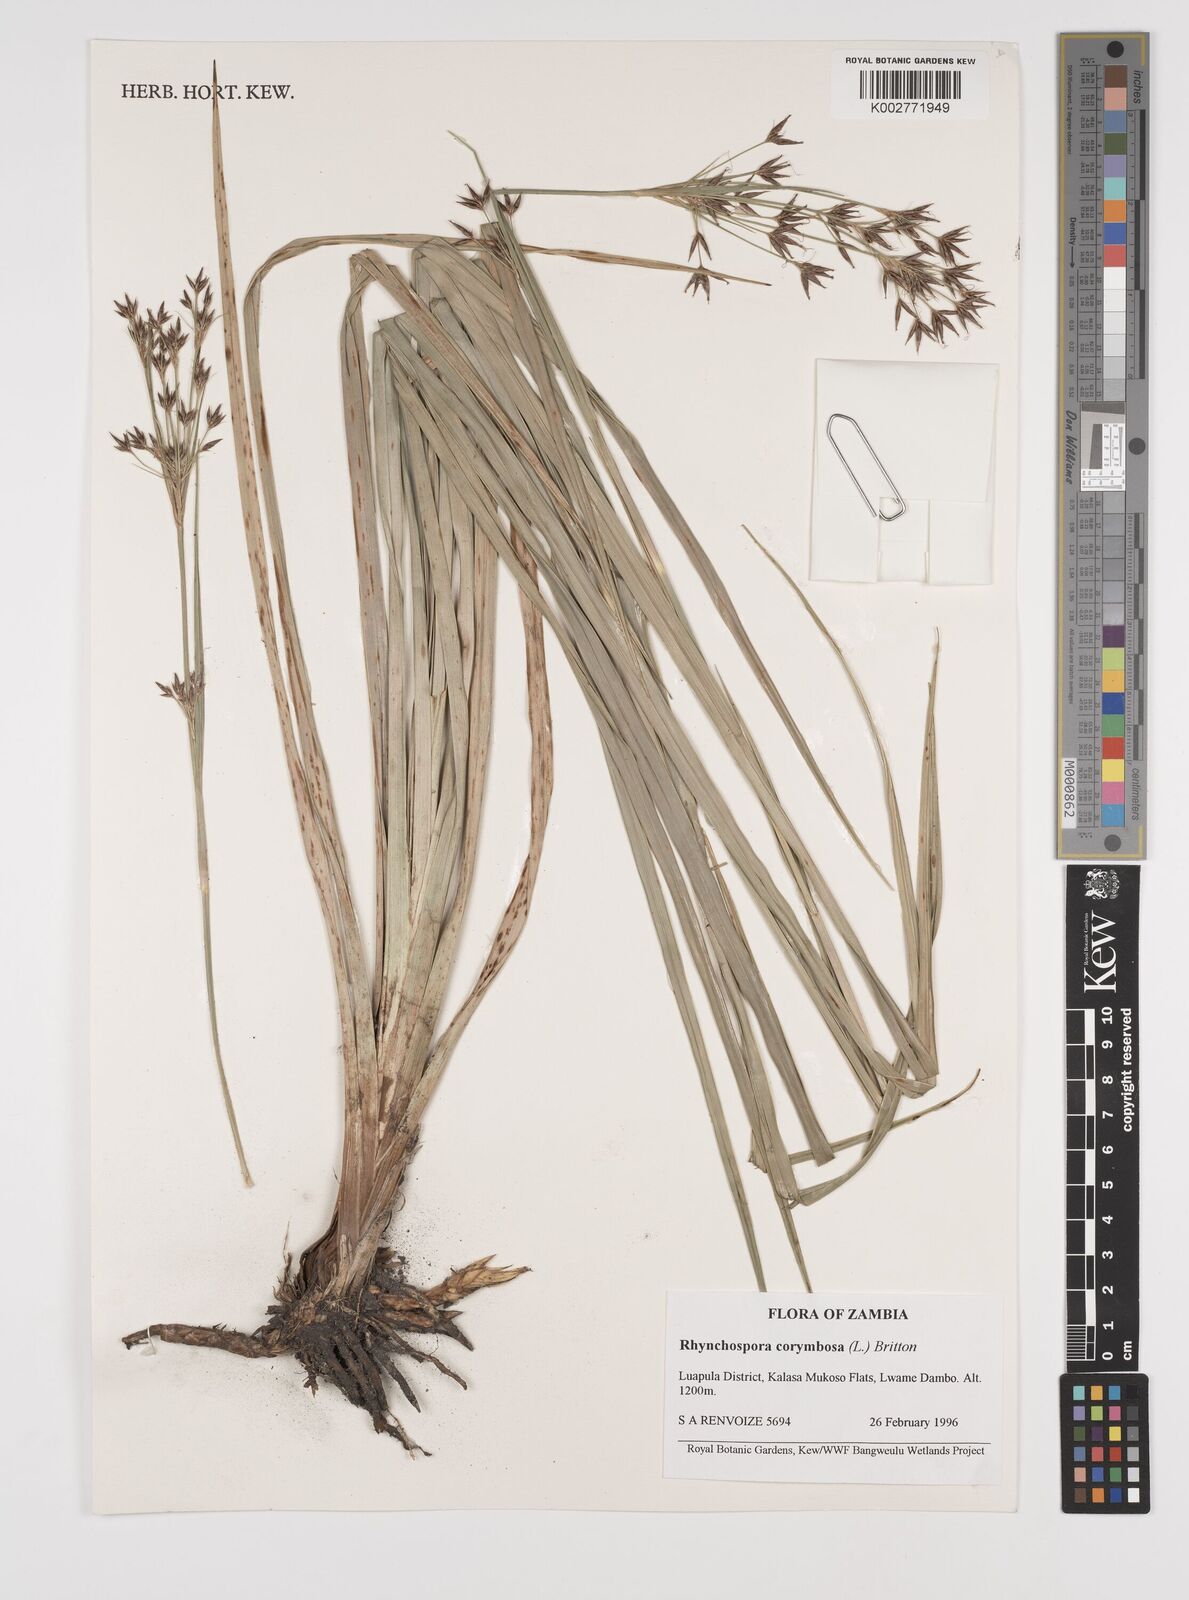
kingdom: Plantae
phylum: Tracheophyta
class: Liliopsida
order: Poales
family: Cyperaceae
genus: Rhynchospora
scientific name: Rhynchospora corymbosa
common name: Golden beak sedge
